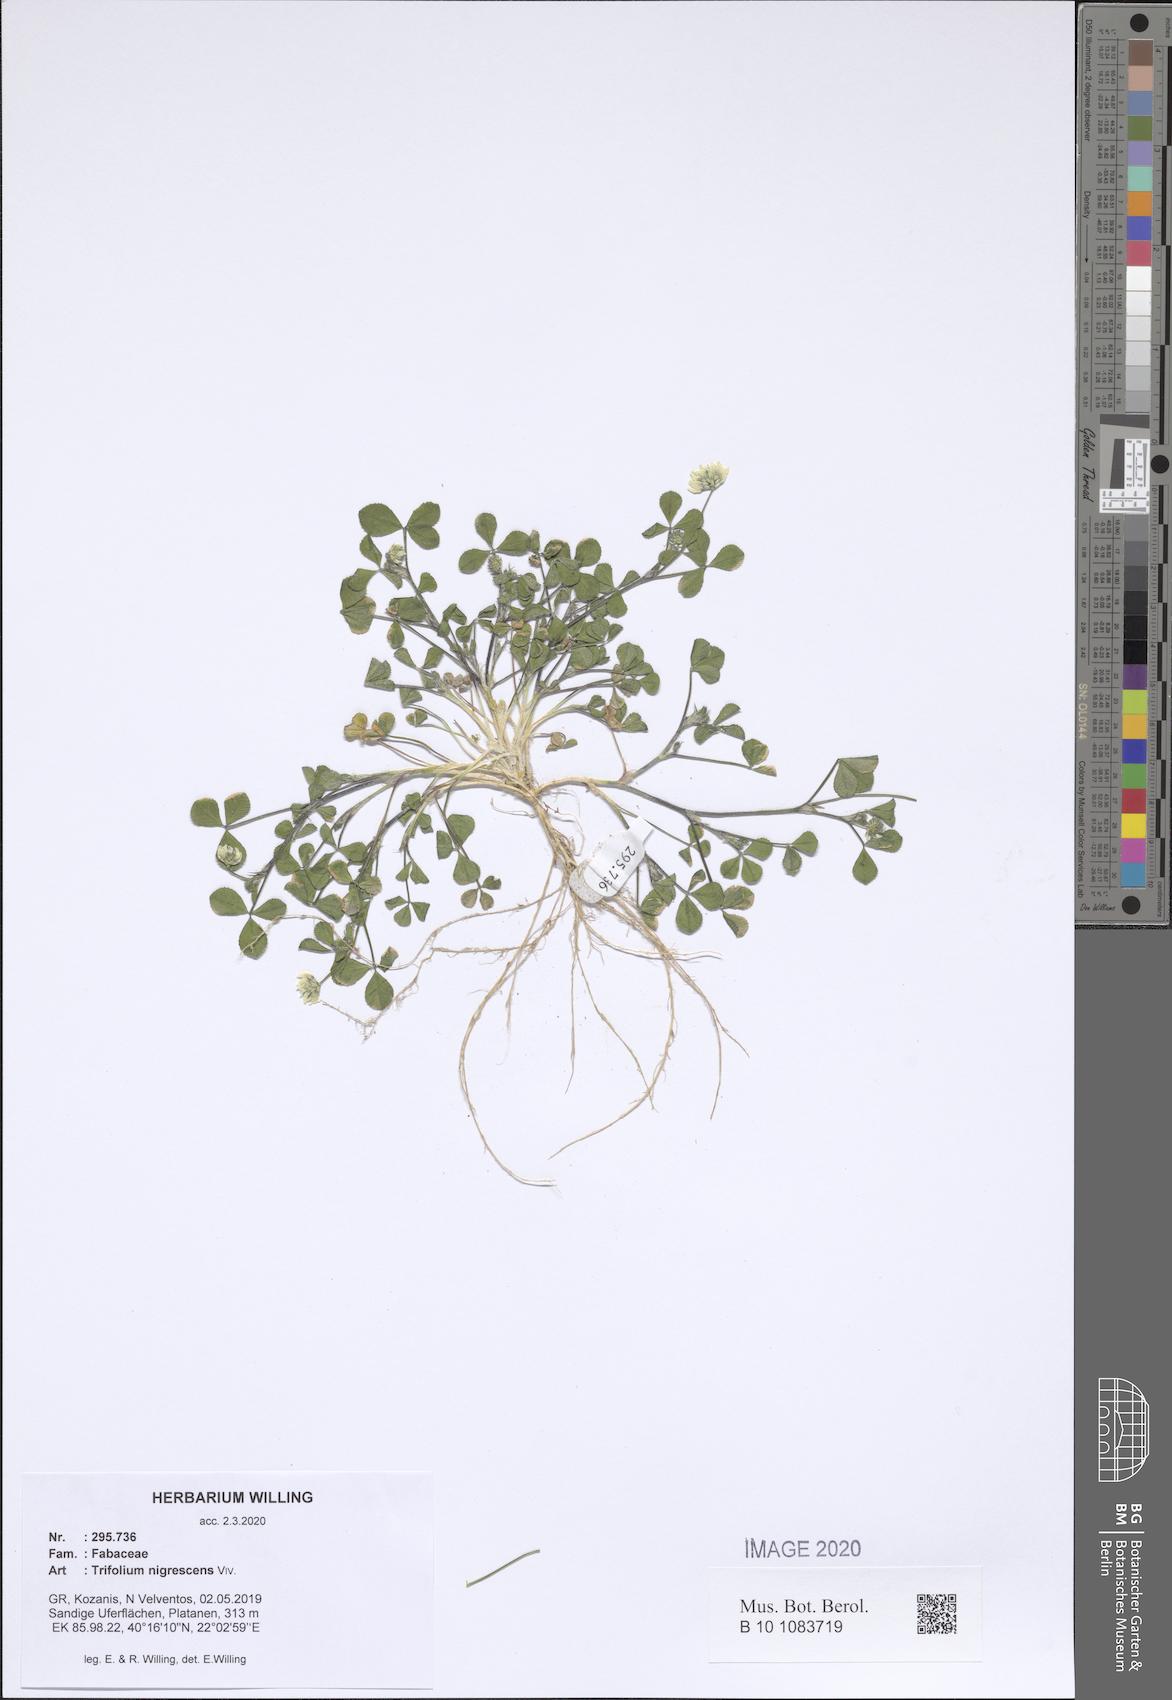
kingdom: Plantae
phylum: Tracheophyta
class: Magnoliopsida
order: Fabales
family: Fabaceae
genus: Trifolium
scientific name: Trifolium nigrescens
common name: Small white clover
